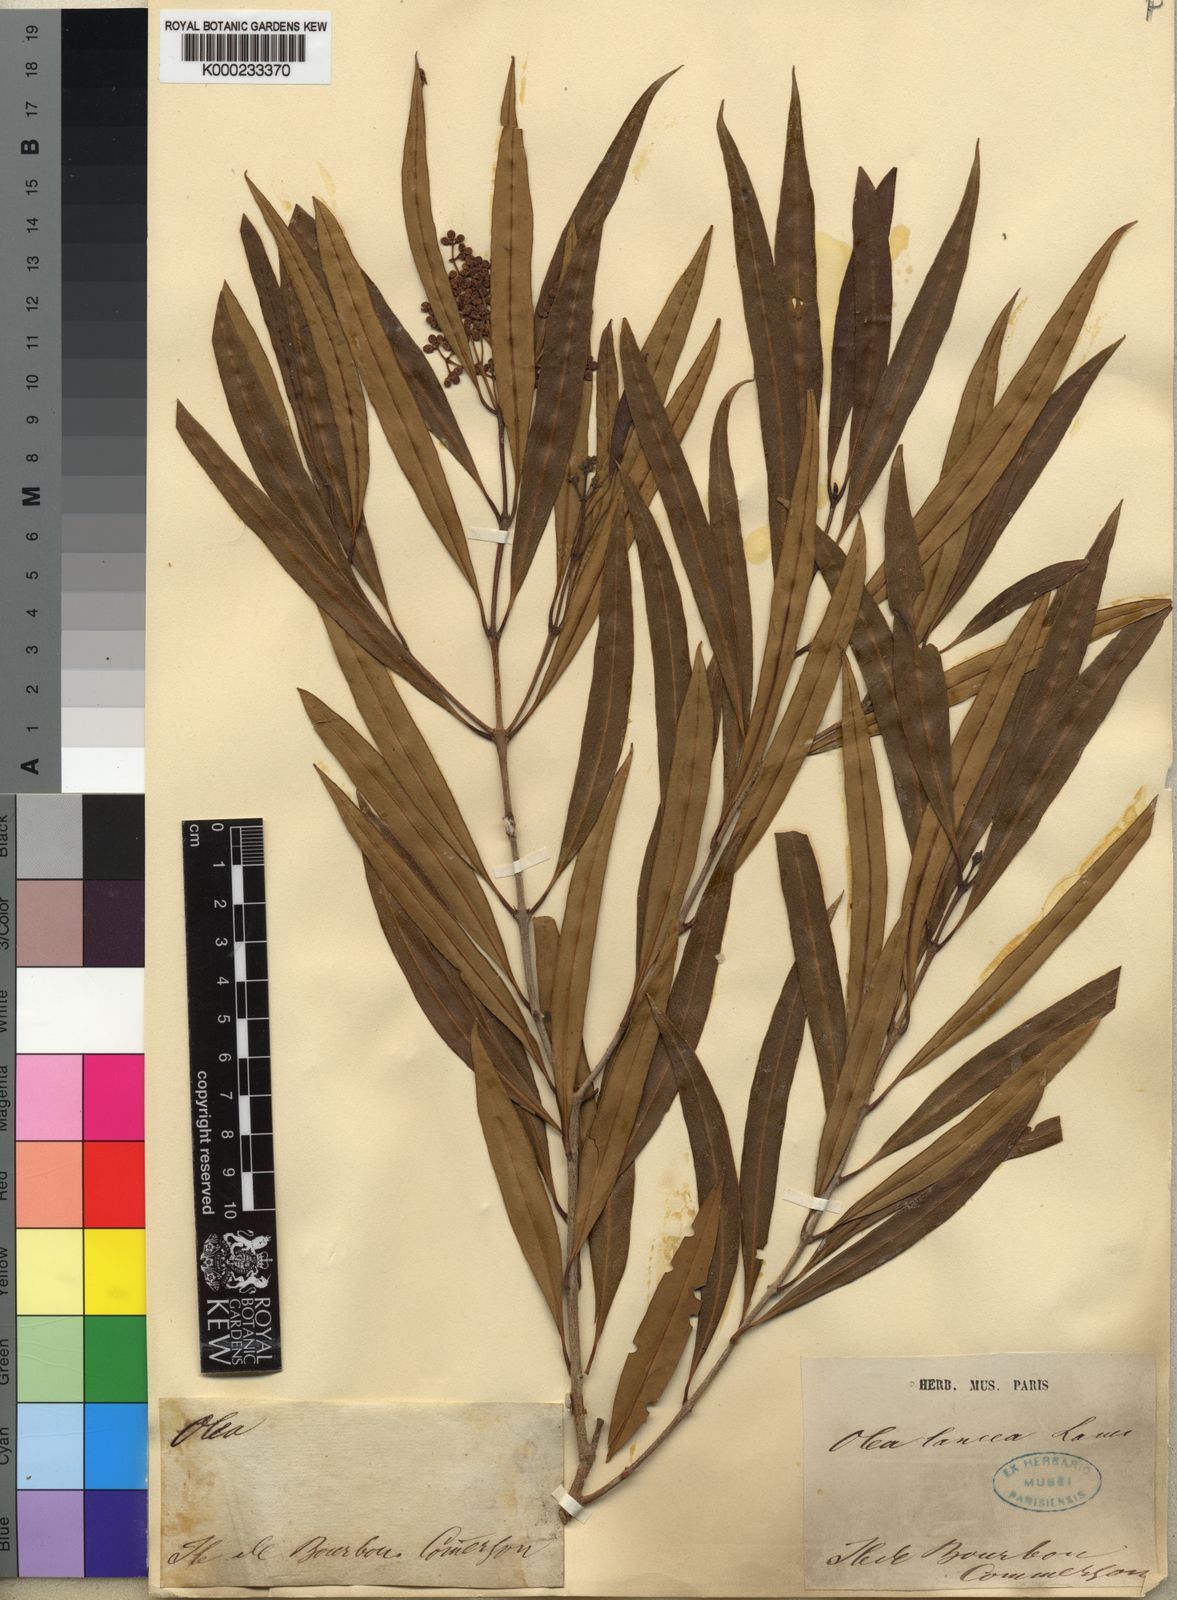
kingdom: Plantae
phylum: Tracheophyta
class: Magnoliopsida
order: Lamiales
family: Oleaceae
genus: Olea
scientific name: Olea lancea
